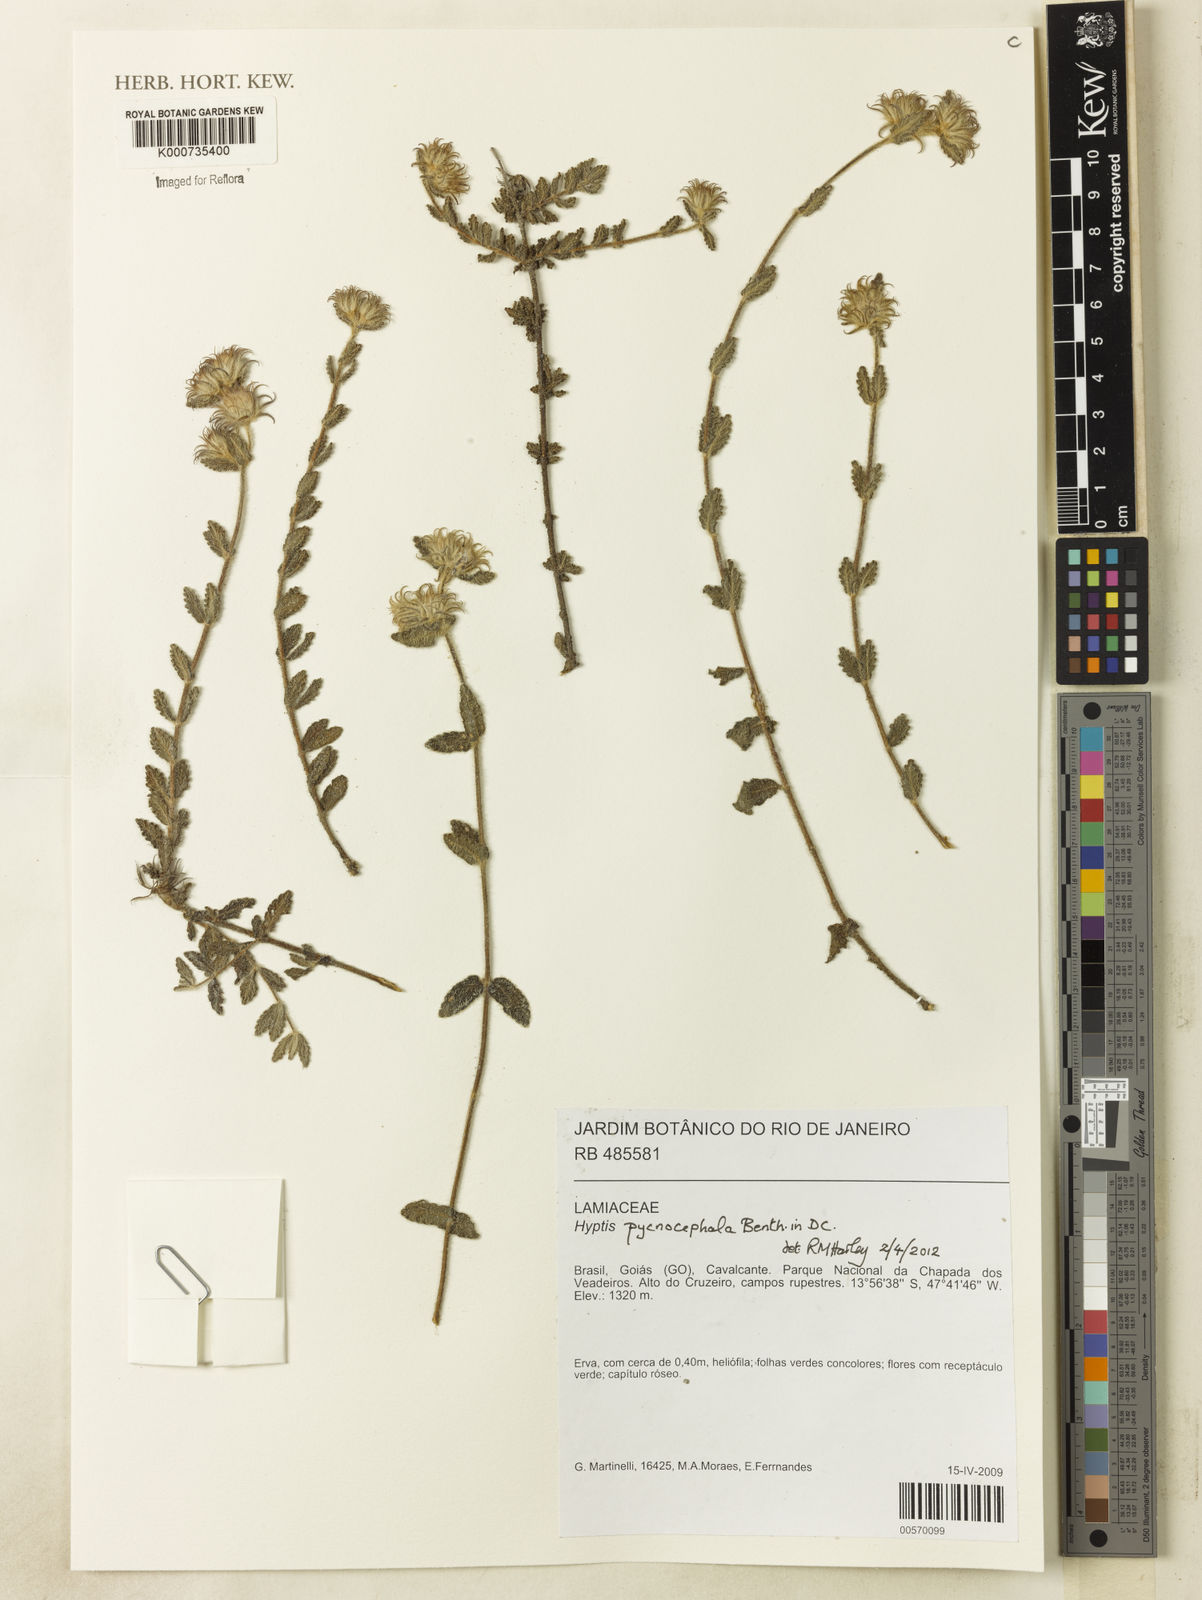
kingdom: Plantae
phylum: Tracheophyta
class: Magnoliopsida
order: Lamiales
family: Lamiaceae
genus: Hyptis
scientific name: Hyptis pycnocephala
